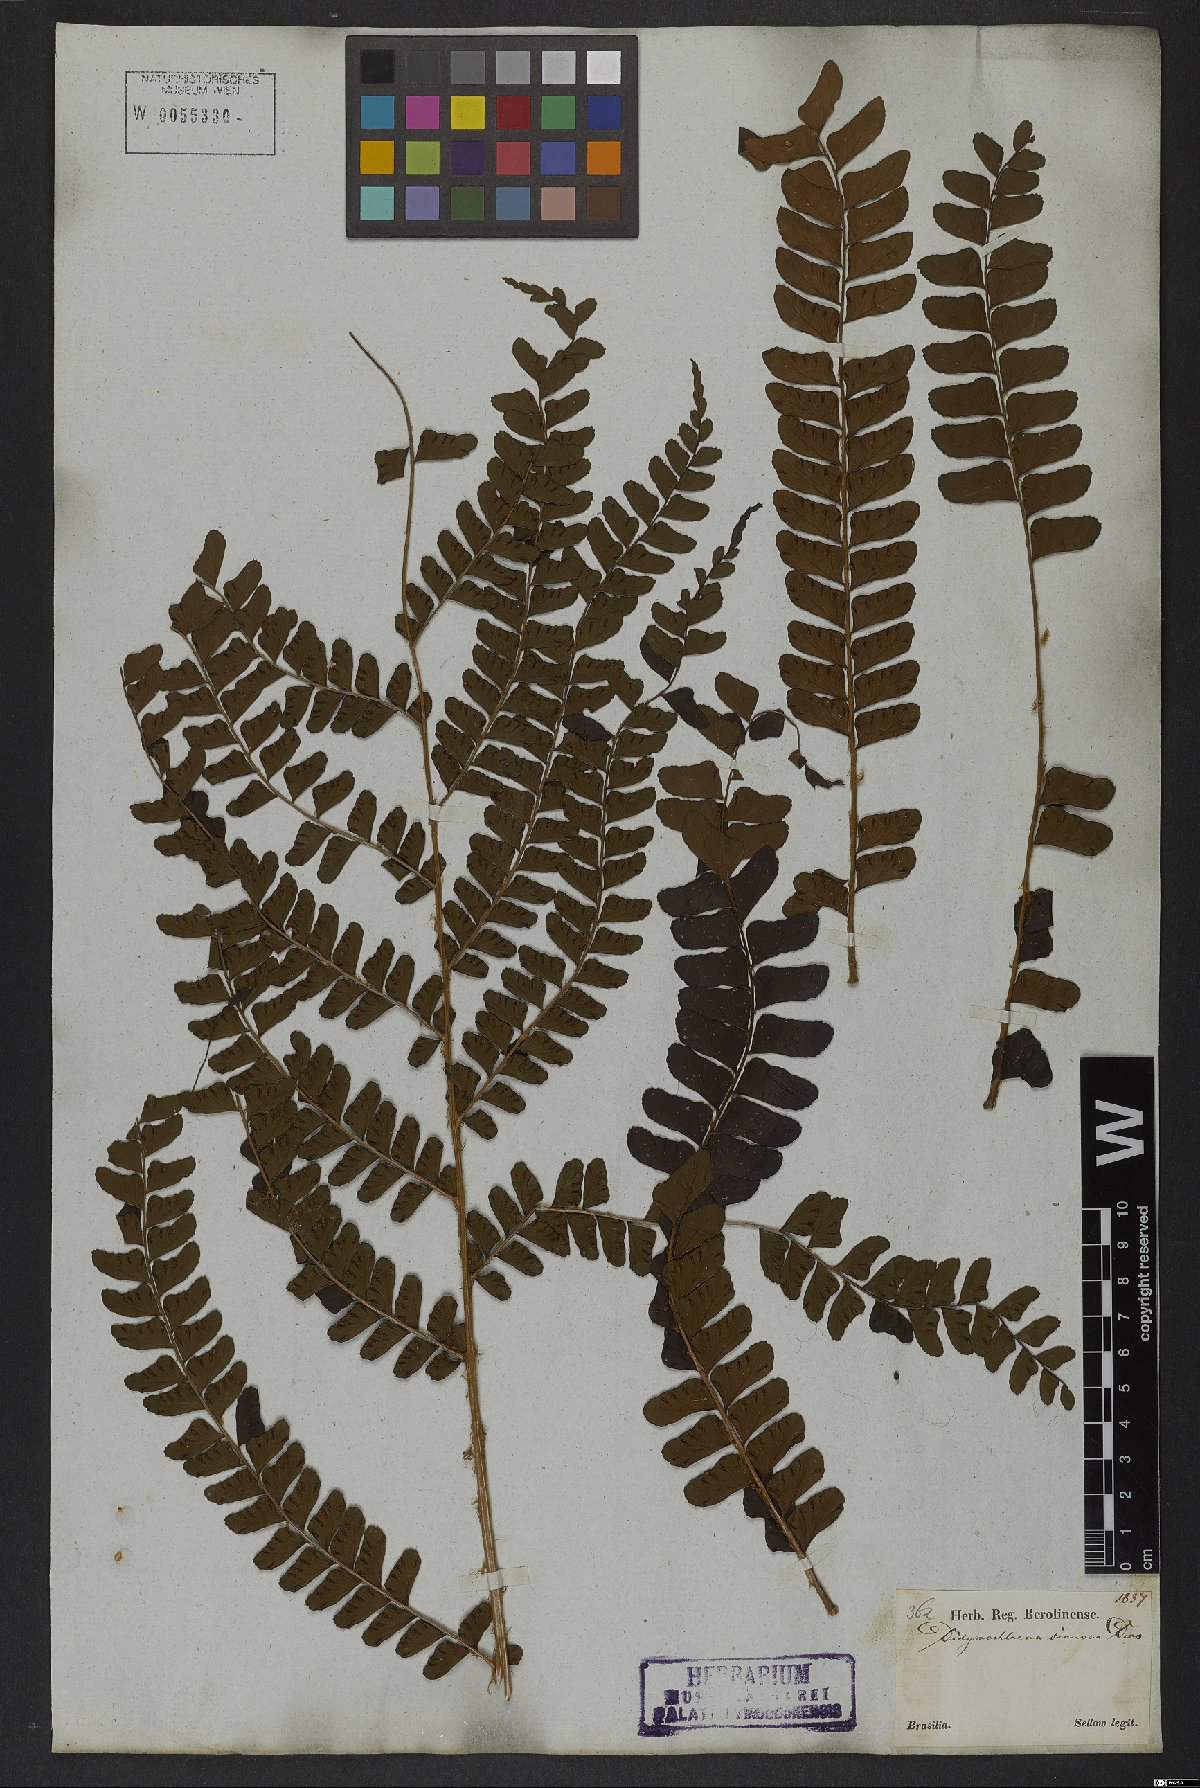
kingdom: Plantae
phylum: Tracheophyta
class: Polypodiopsida
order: Polypodiales
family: Didymochlaenaceae
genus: Didymochlaena
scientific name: Didymochlaena truncatula
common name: Mahogany fern
